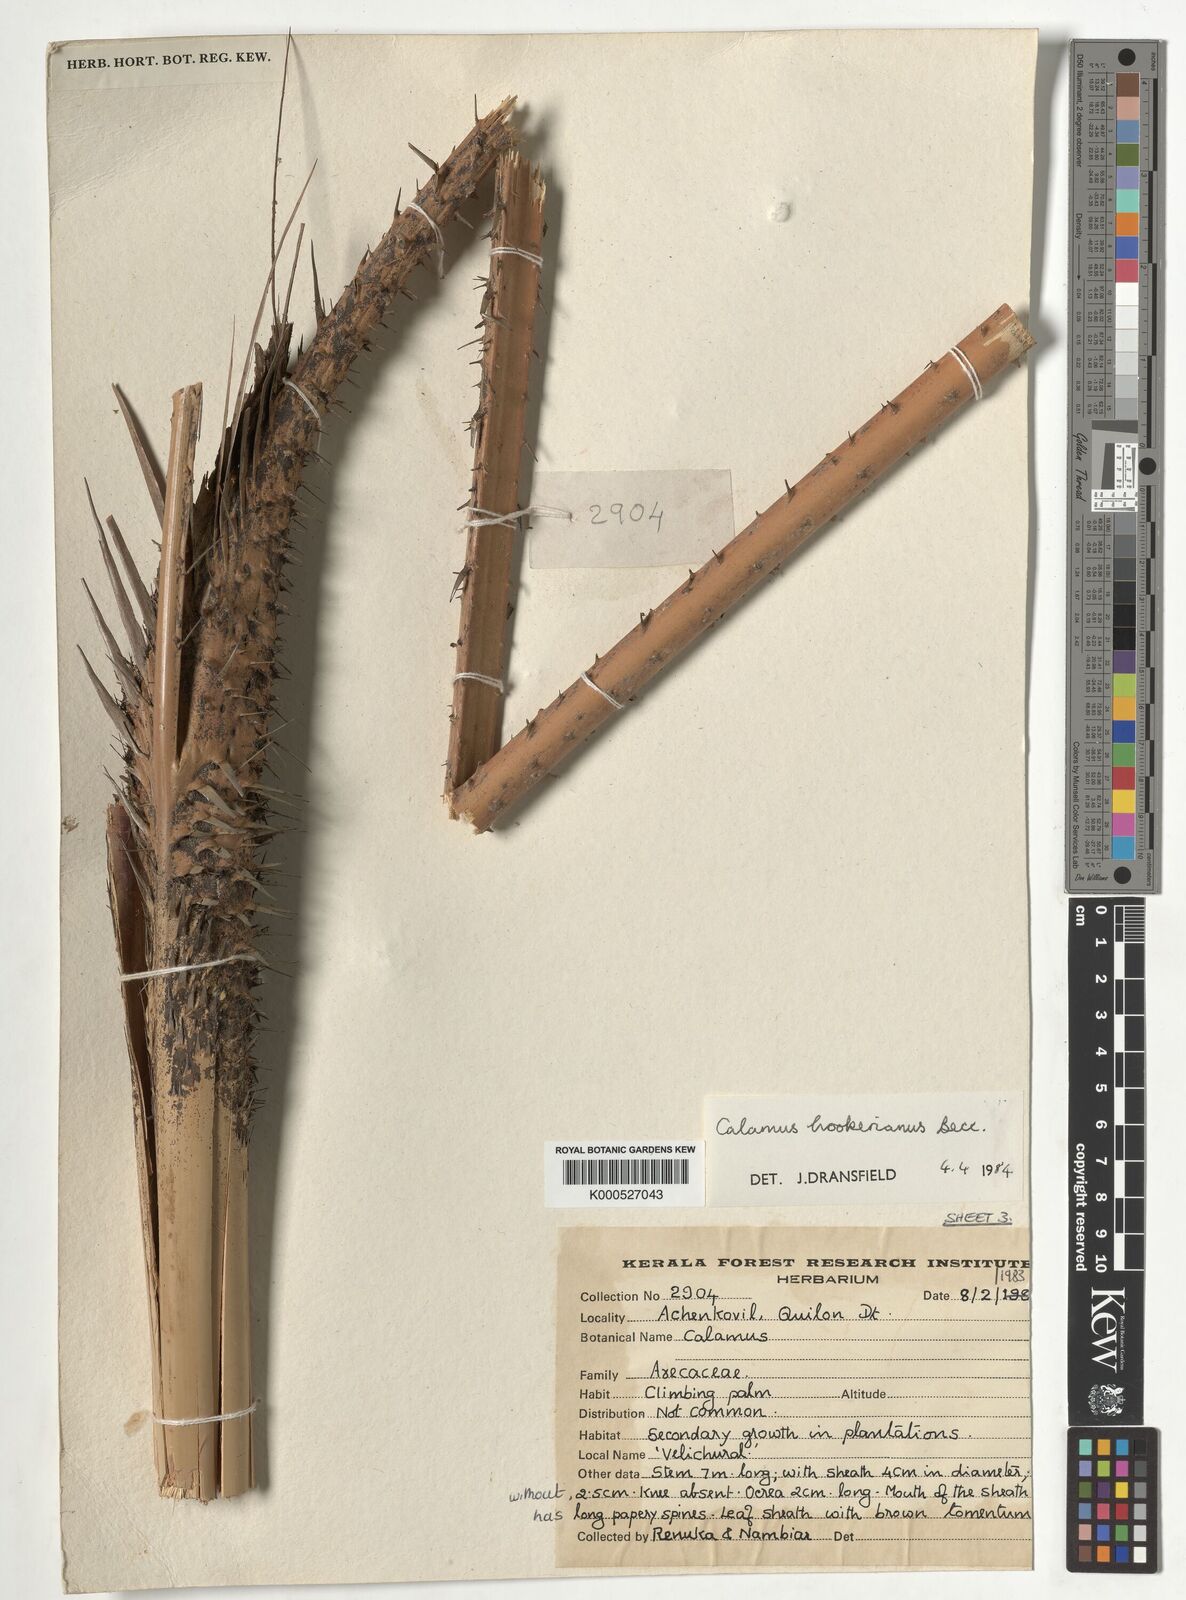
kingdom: Plantae
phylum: Tracheophyta
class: Liliopsida
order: Arecales
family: Arecaceae
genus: Calamus
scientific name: Calamus hookerianus
